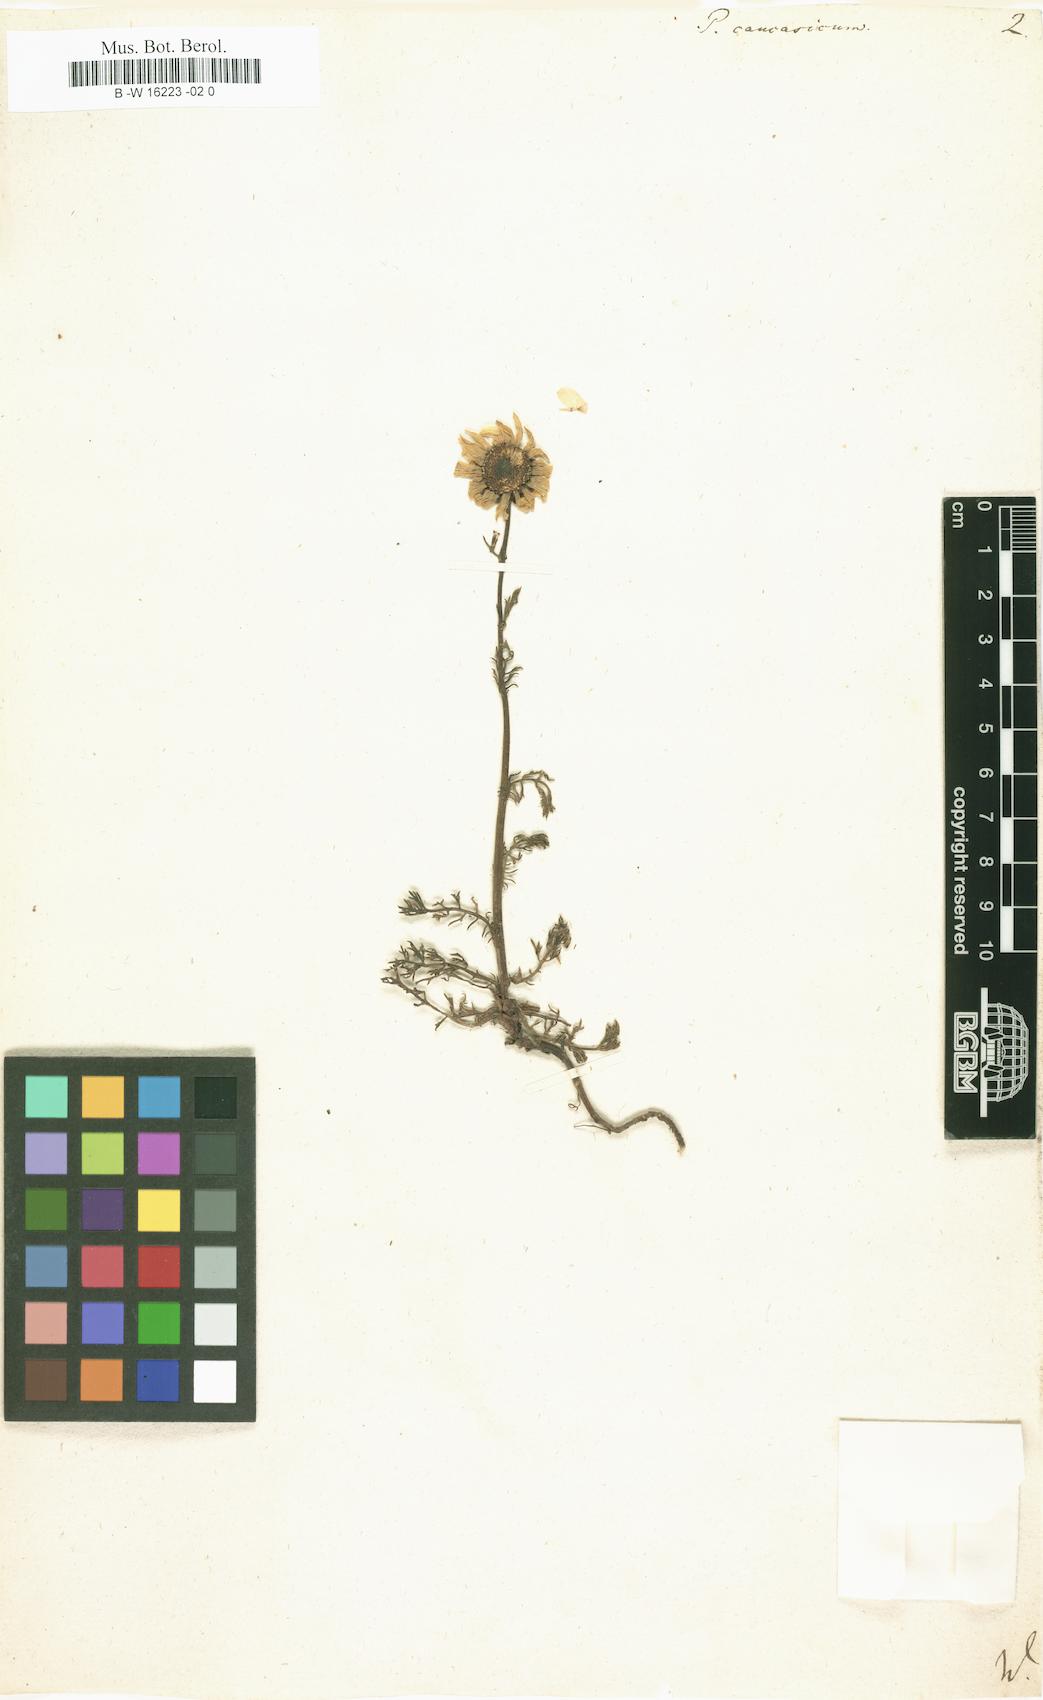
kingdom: Plantae
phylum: Tracheophyta
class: Magnoliopsida
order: Asterales
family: Asteraceae
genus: Tripleurospermum
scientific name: Tripleurospermum caucasicum
